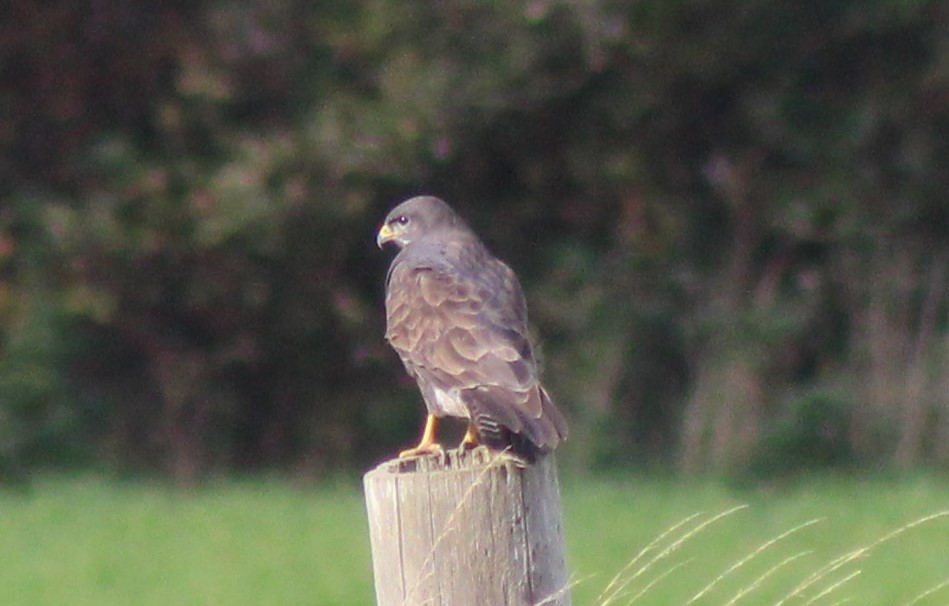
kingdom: Animalia
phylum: Chordata
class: Aves
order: Accipitriformes
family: Accipitridae
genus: Buteo
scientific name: Buteo buteo
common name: Musvåge
